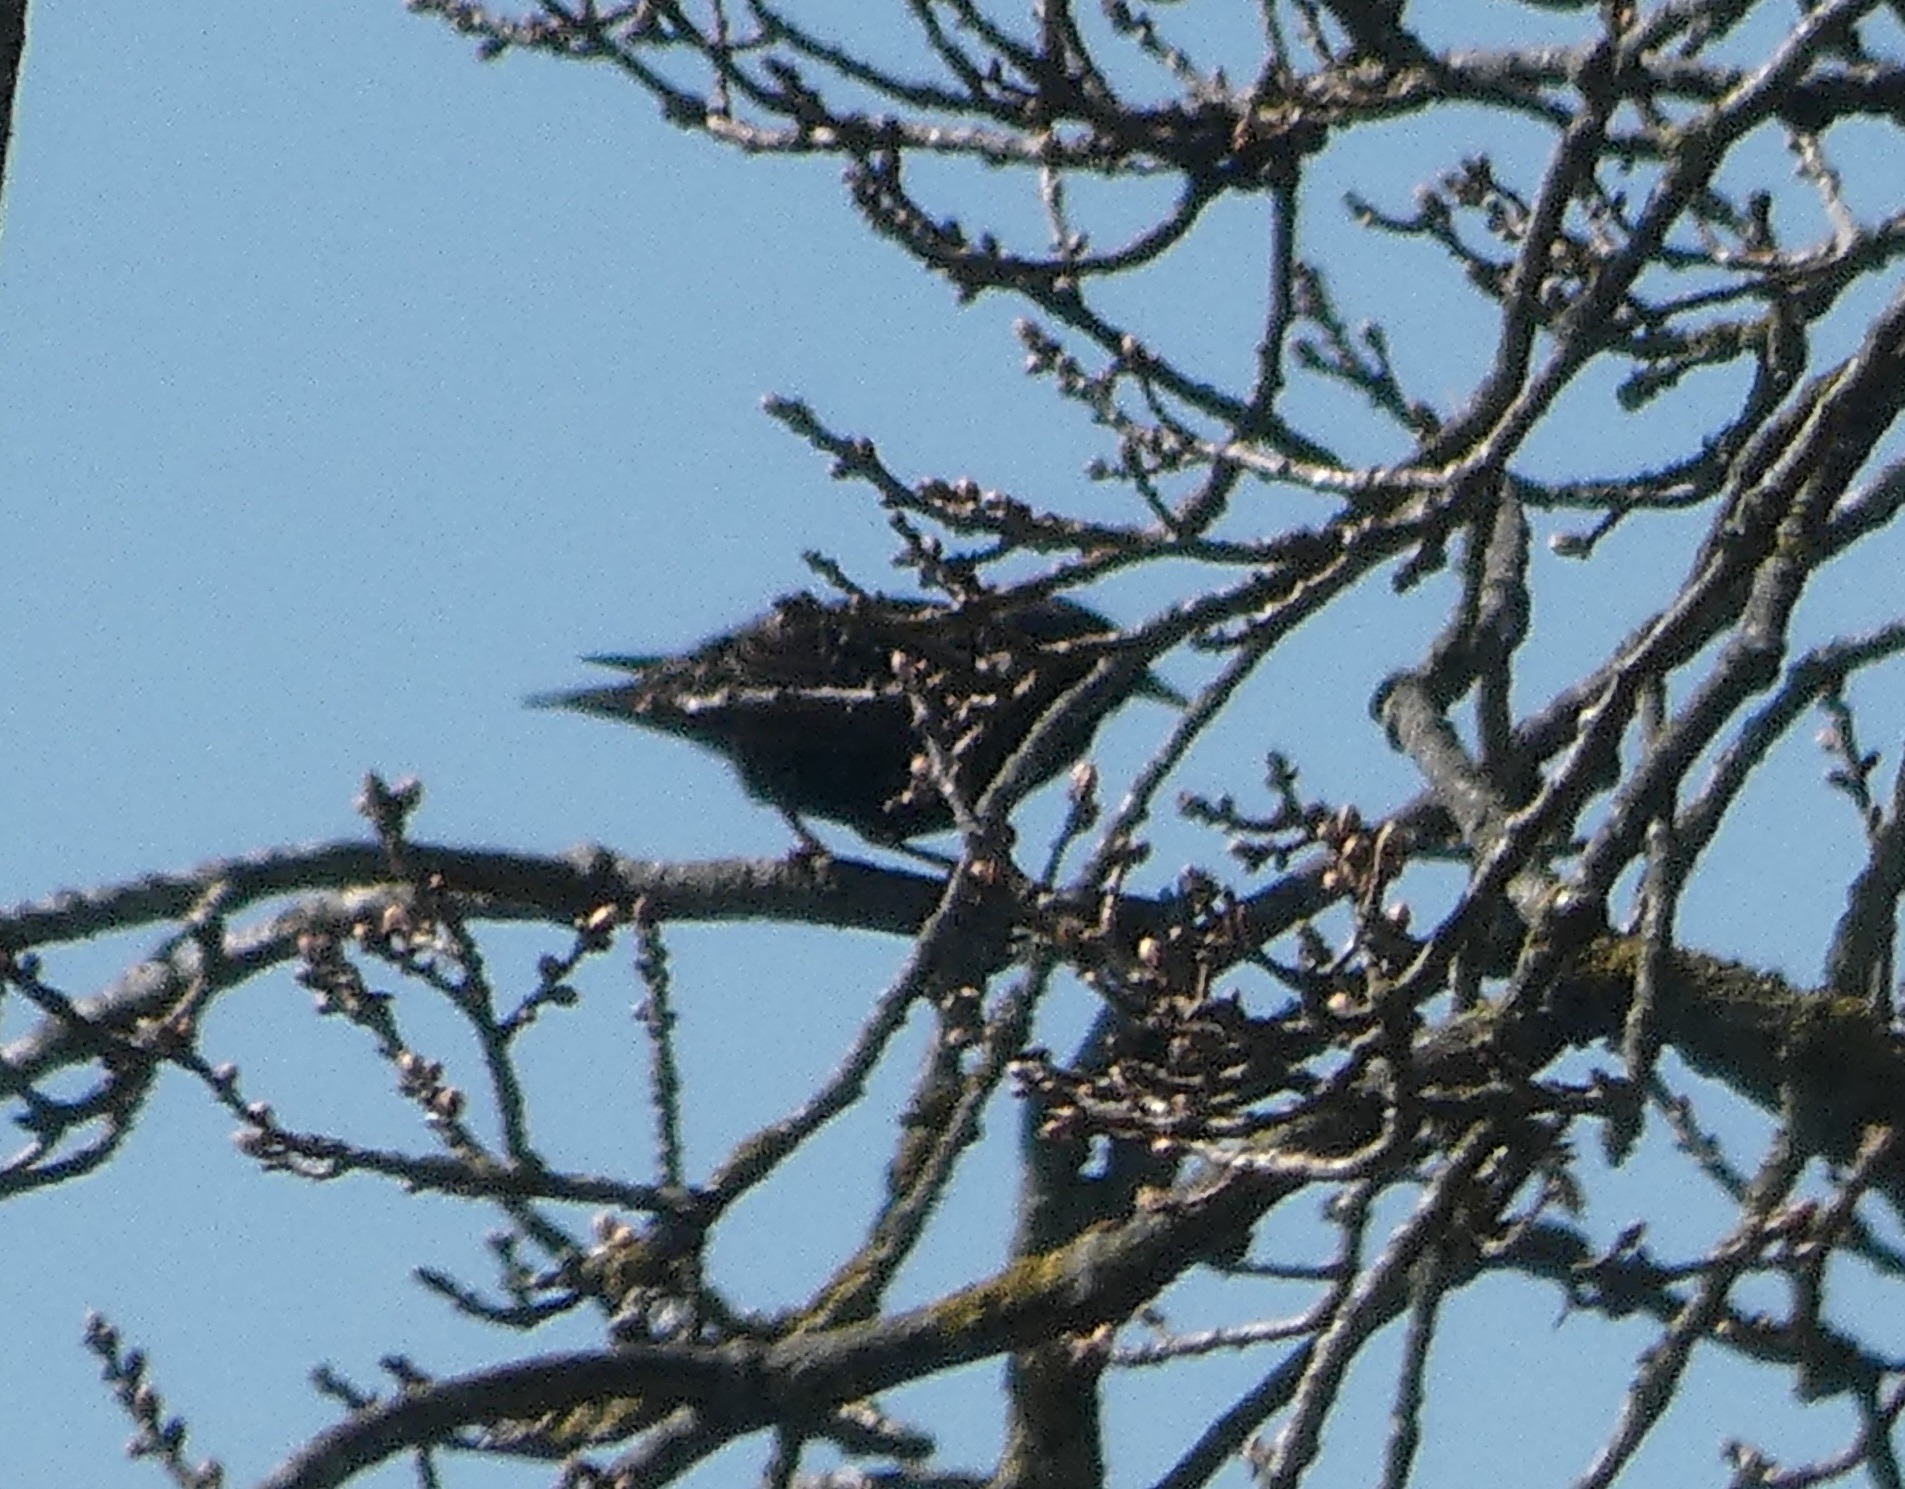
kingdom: Animalia
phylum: Chordata
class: Aves
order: Passeriformes
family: Sturnidae
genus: Sturnus
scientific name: Sturnus vulgaris
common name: Stær
